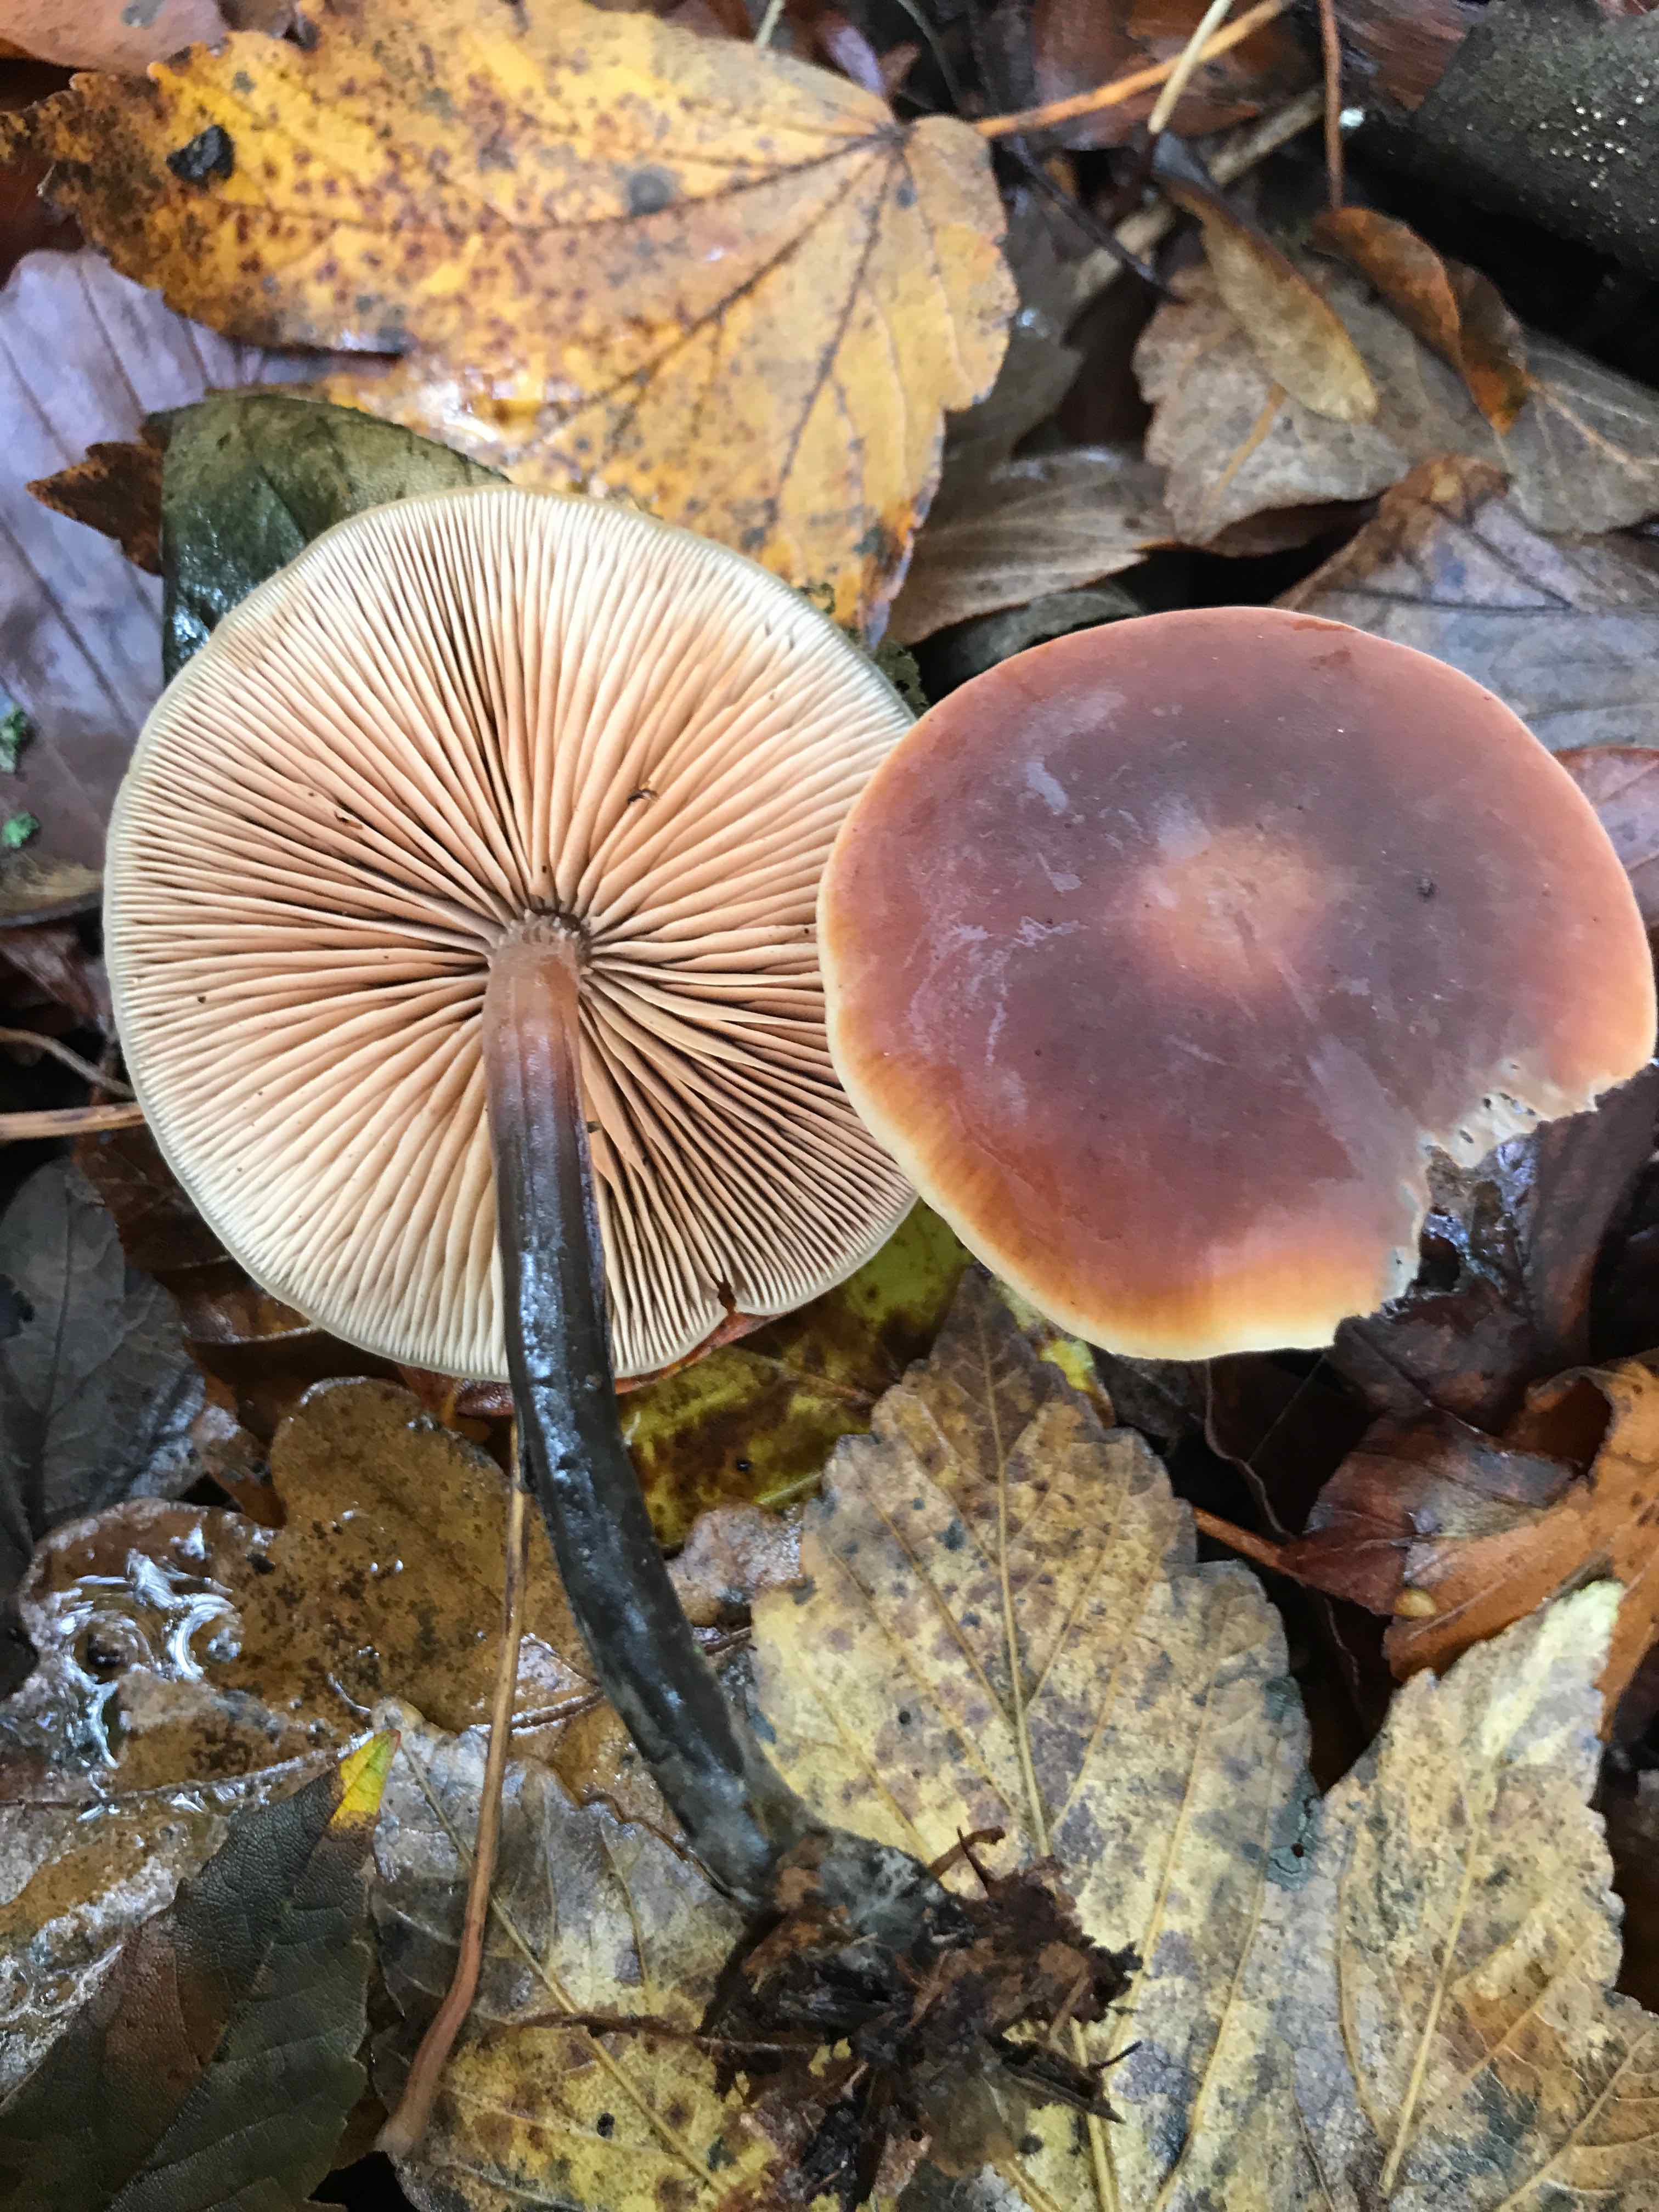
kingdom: Fungi
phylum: Basidiomycota
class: Agaricomycetes
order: Agaricales
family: Macrocystidiaceae
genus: Macrocystidia
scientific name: Macrocystidia cucumis
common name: agurkehat
